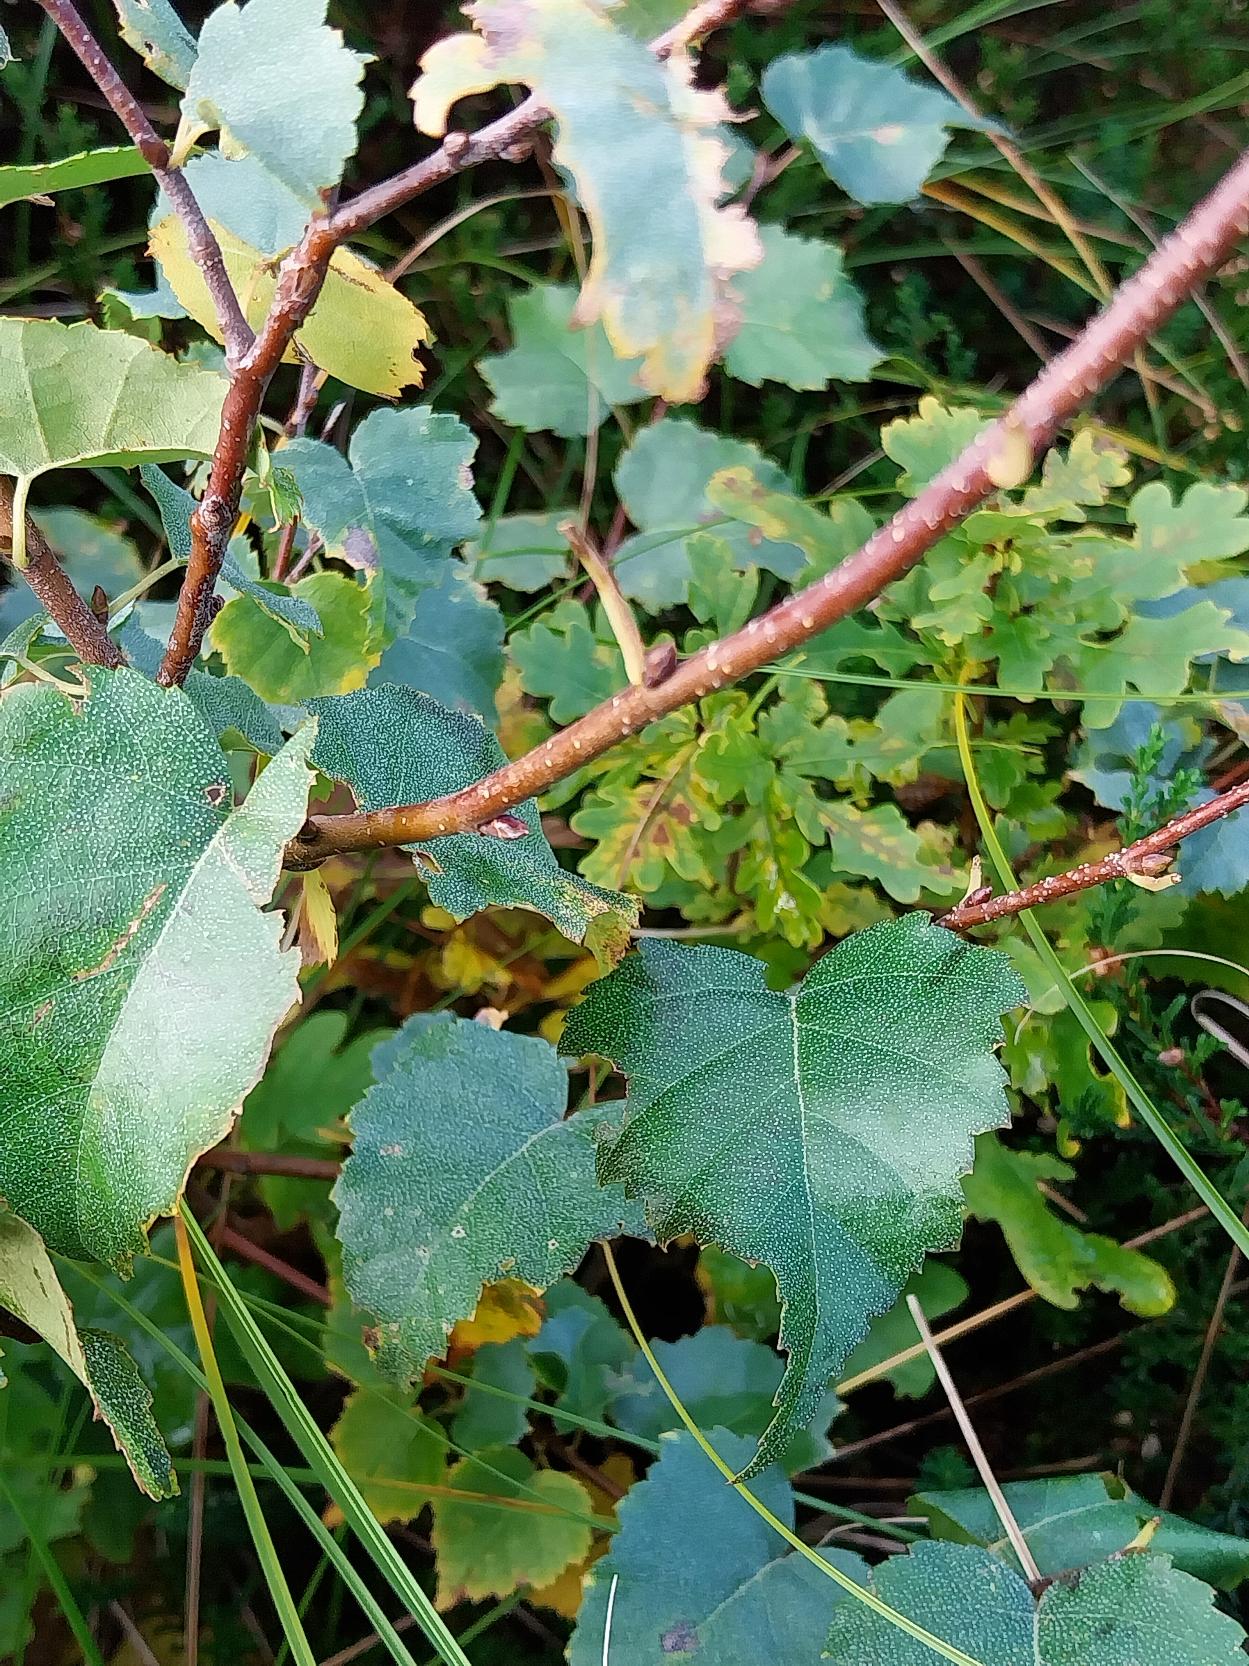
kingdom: Plantae
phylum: Tracheophyta
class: Magnoliopsida
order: Fagales
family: Betulaceae
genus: Betula
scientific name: Betula pendula
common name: Vorte-birk
